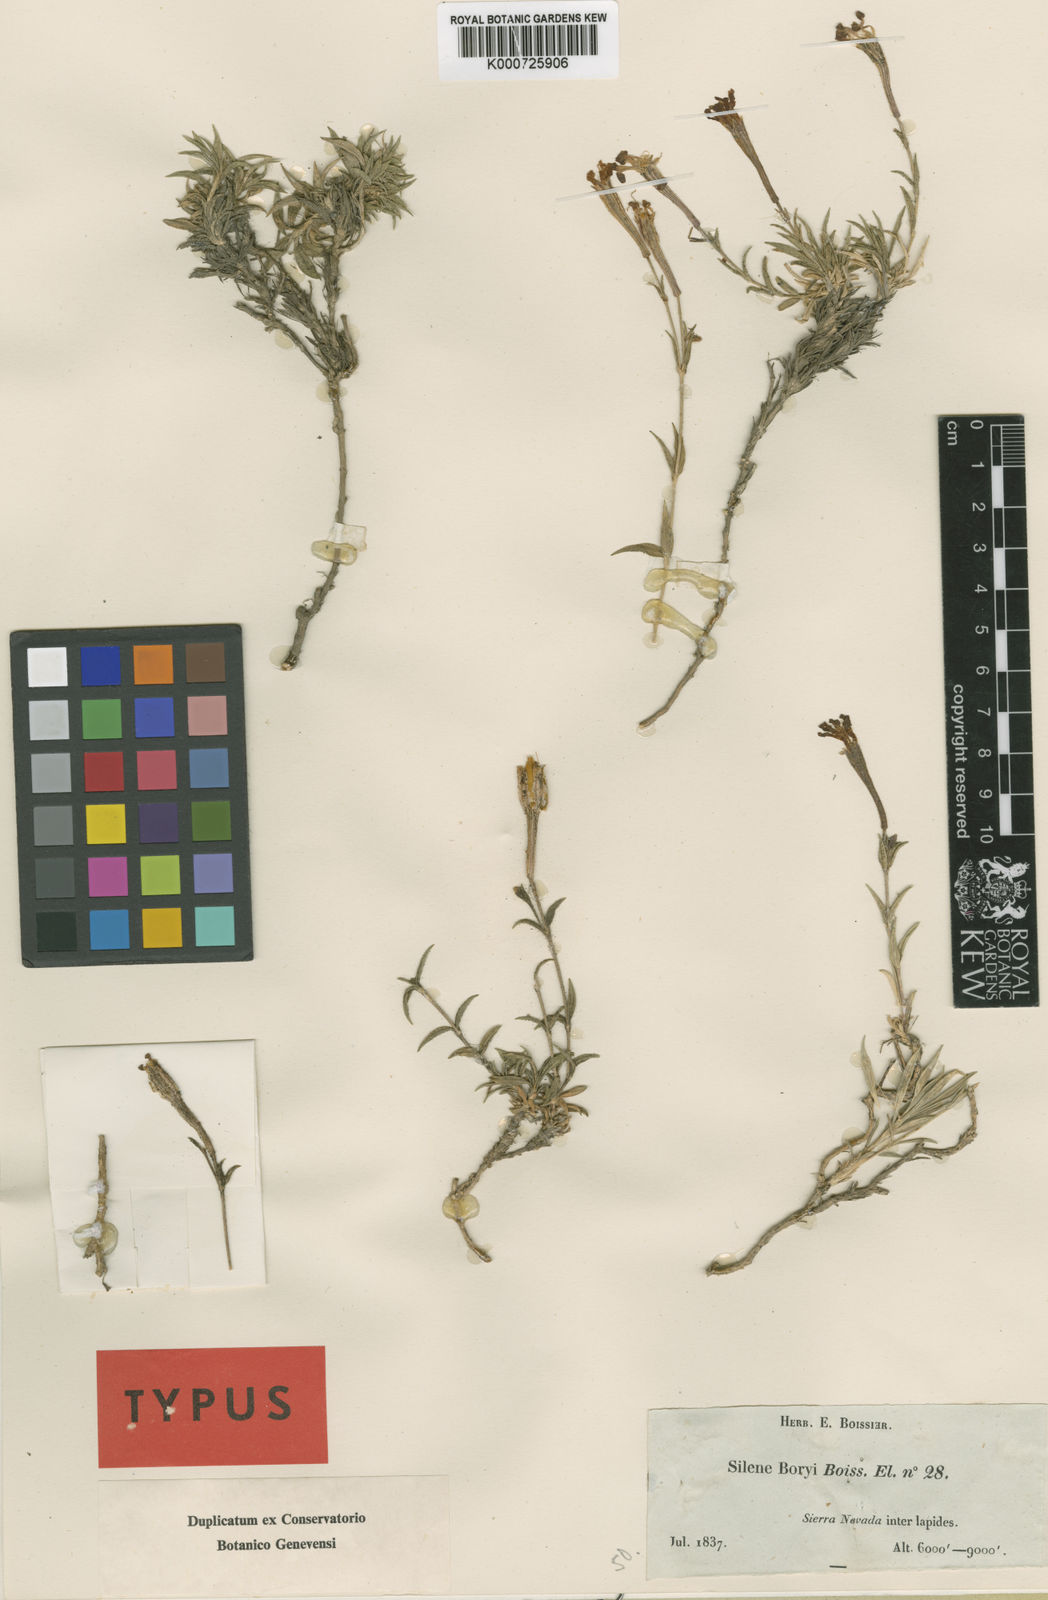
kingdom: Plantae
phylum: Tracheophyta
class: Magnoliopsida
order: Caryophyllales
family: Caryophyllaceae
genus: Silene
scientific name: Silene boryi
